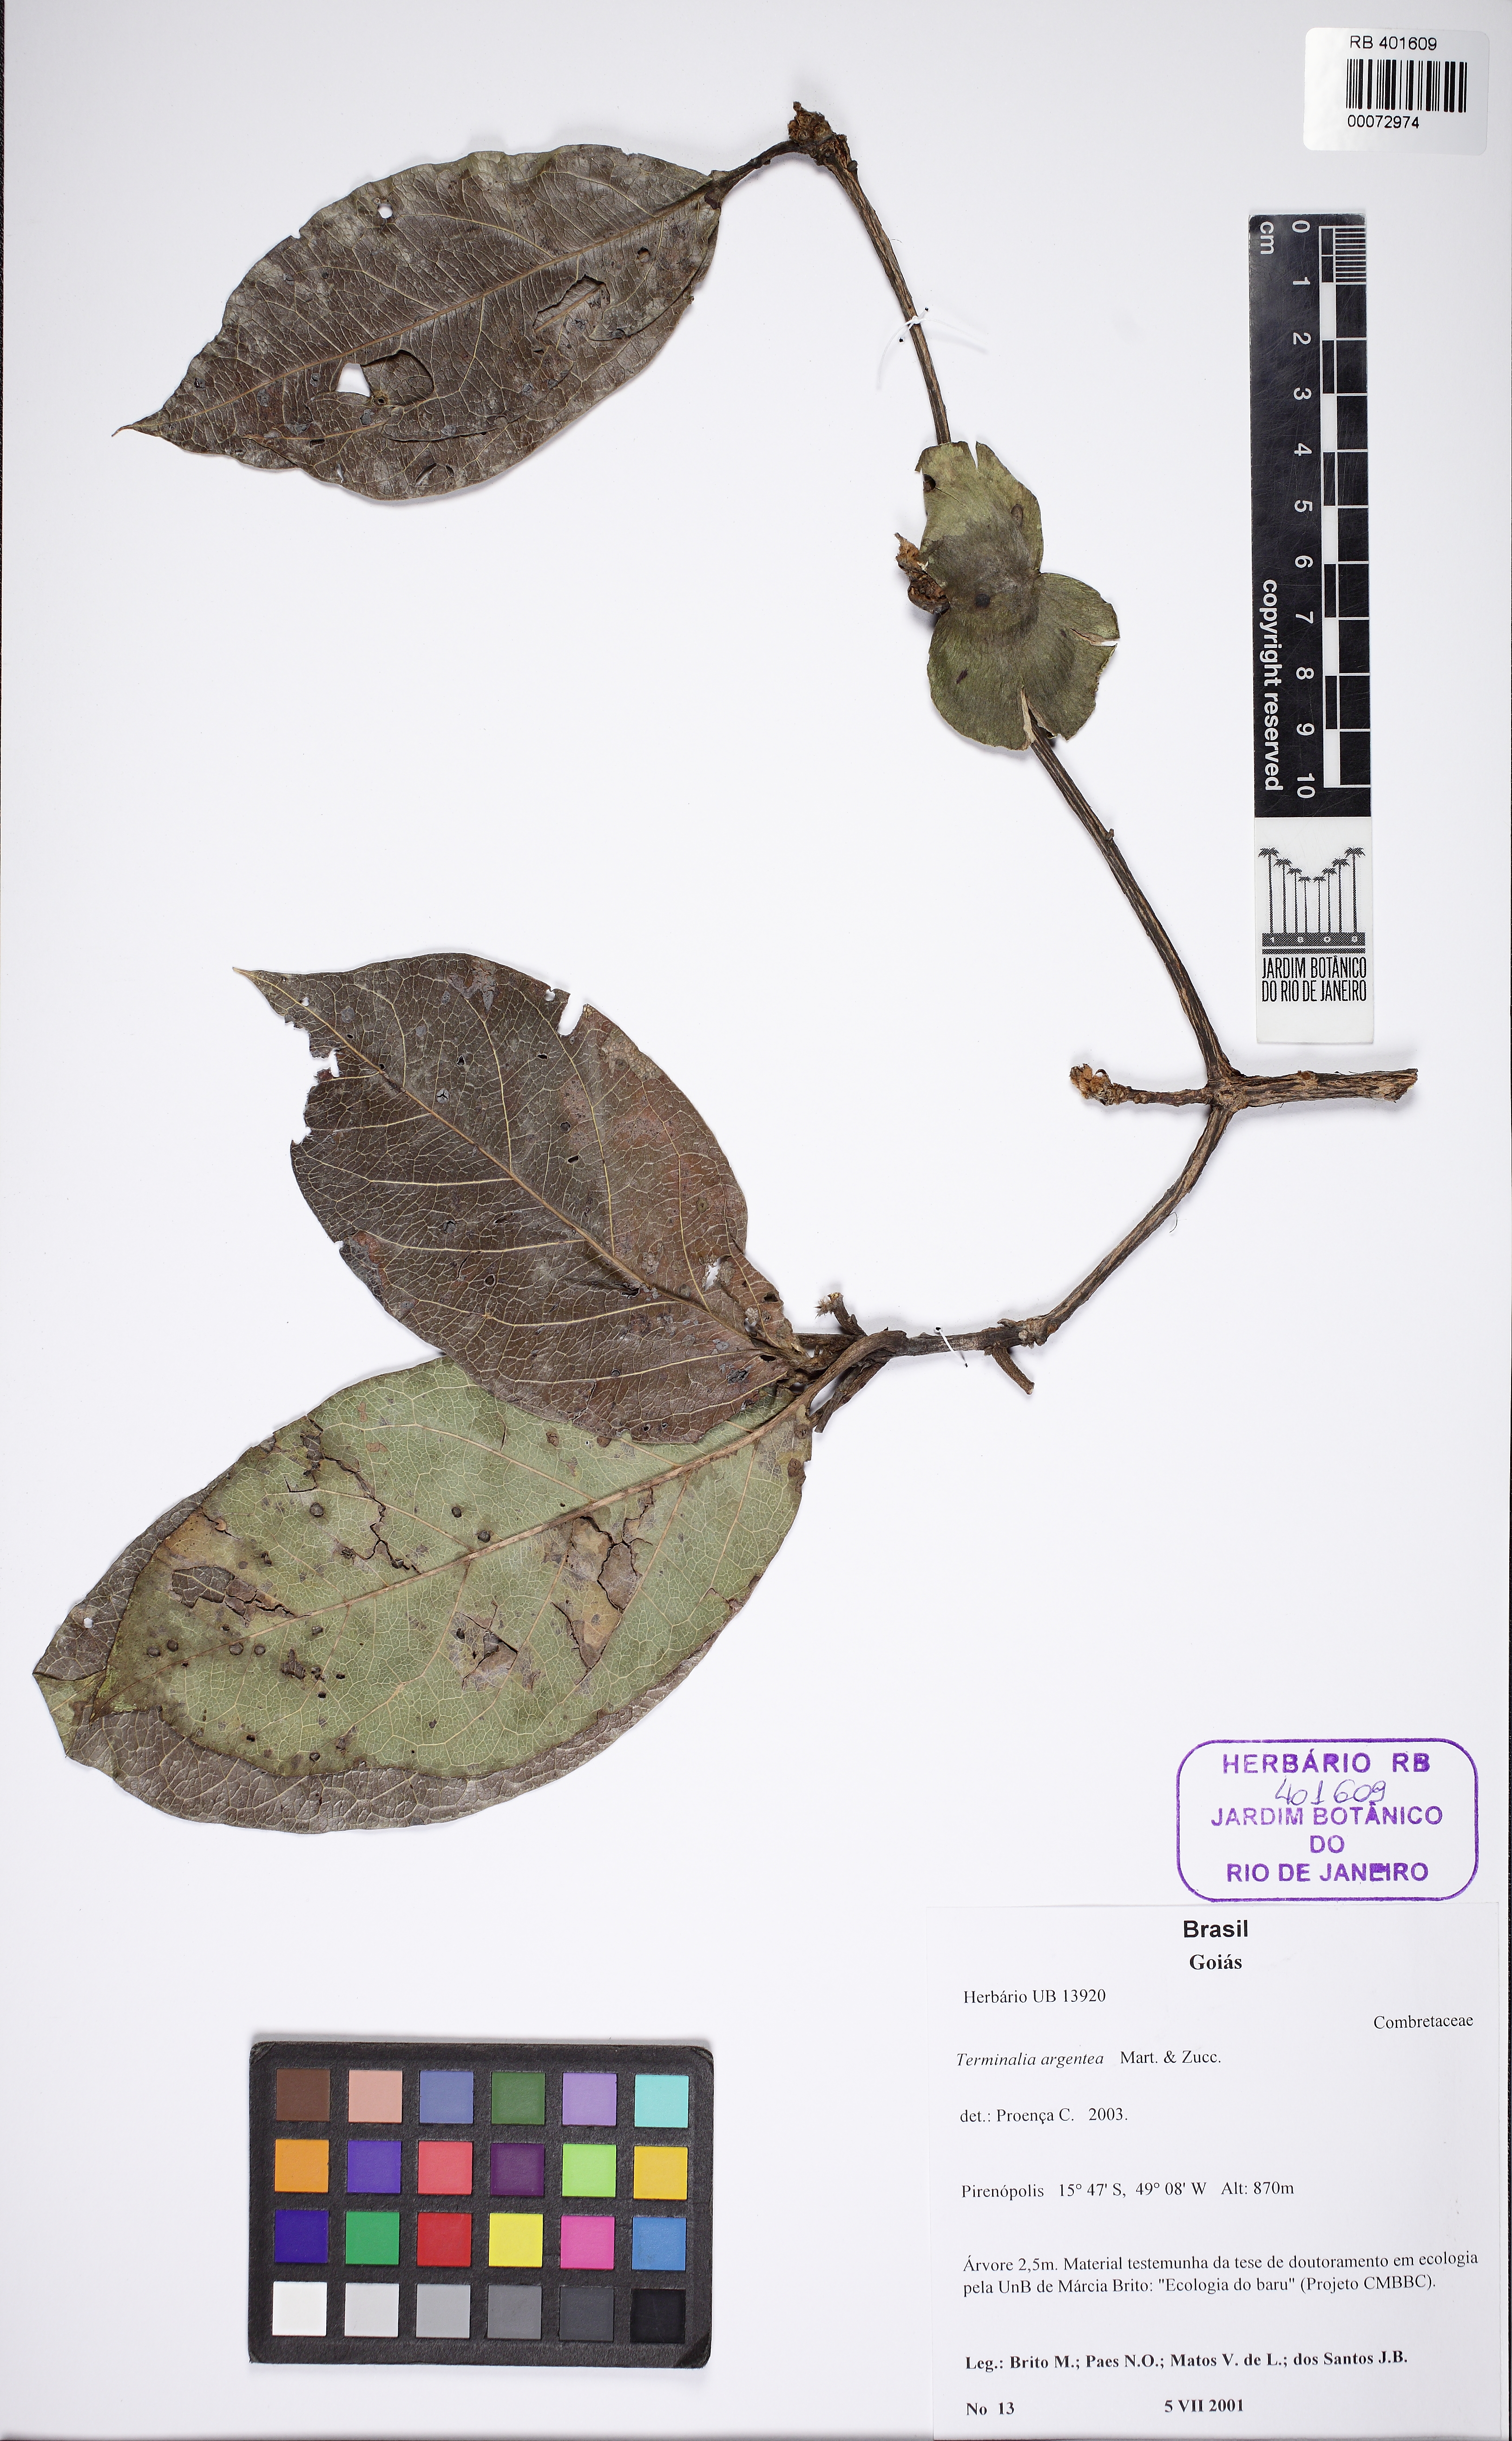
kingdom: Plantae
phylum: Tracheophyta
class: Magnoliopsida
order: Myrtales
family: Combretaceae
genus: Terminalia
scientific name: Terminalia argentea
